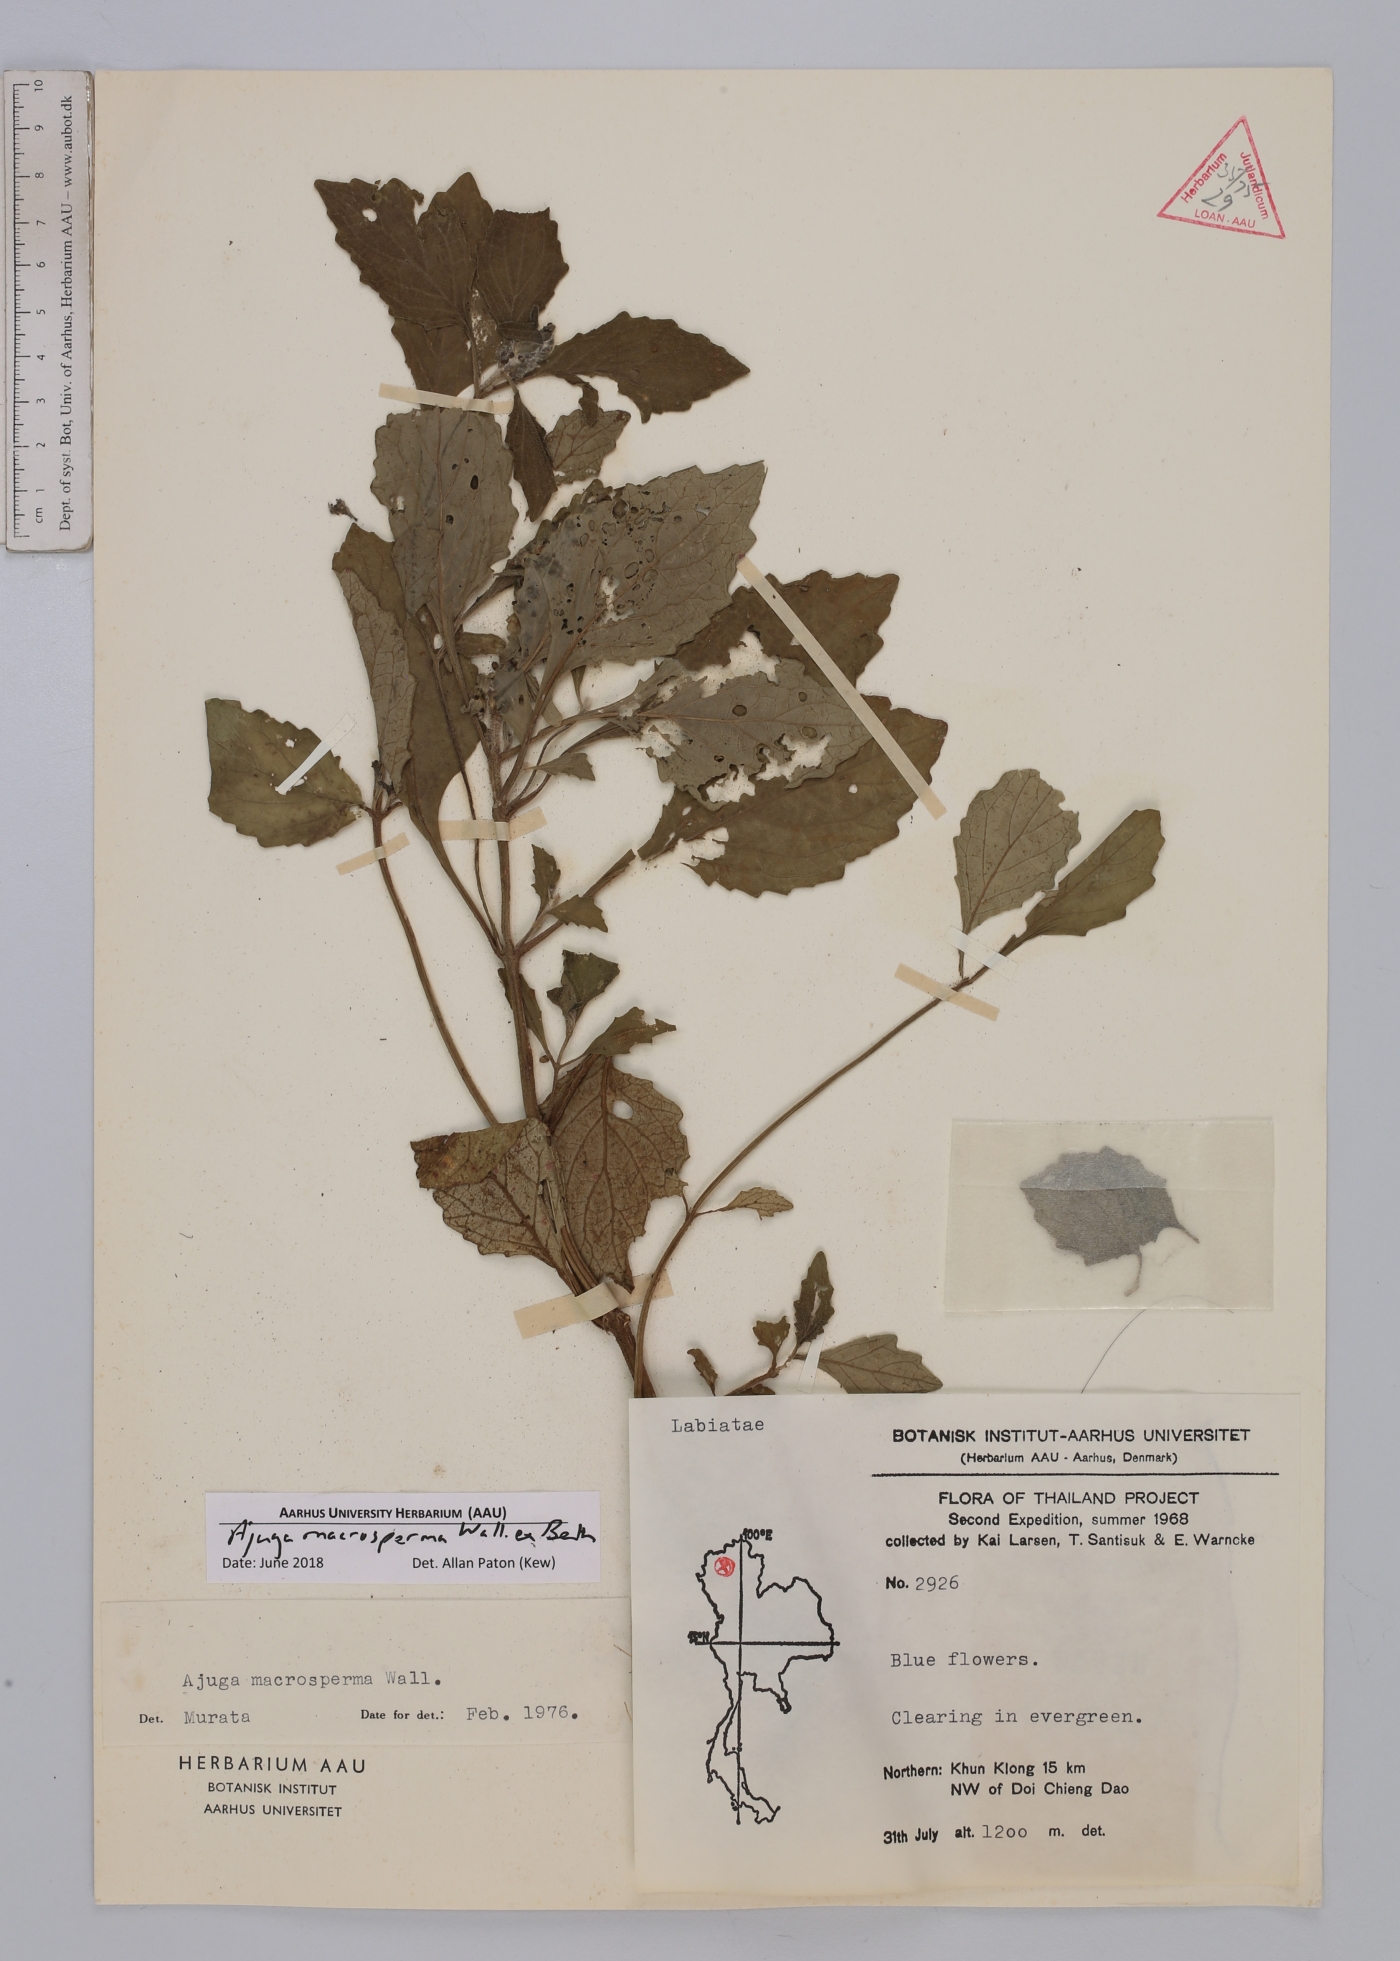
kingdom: Plantae
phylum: Tracheophyta
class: Magnoliopsida
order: Lamiales
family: Lamiaceae
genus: Ajuga
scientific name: Ajuga macrosperma
